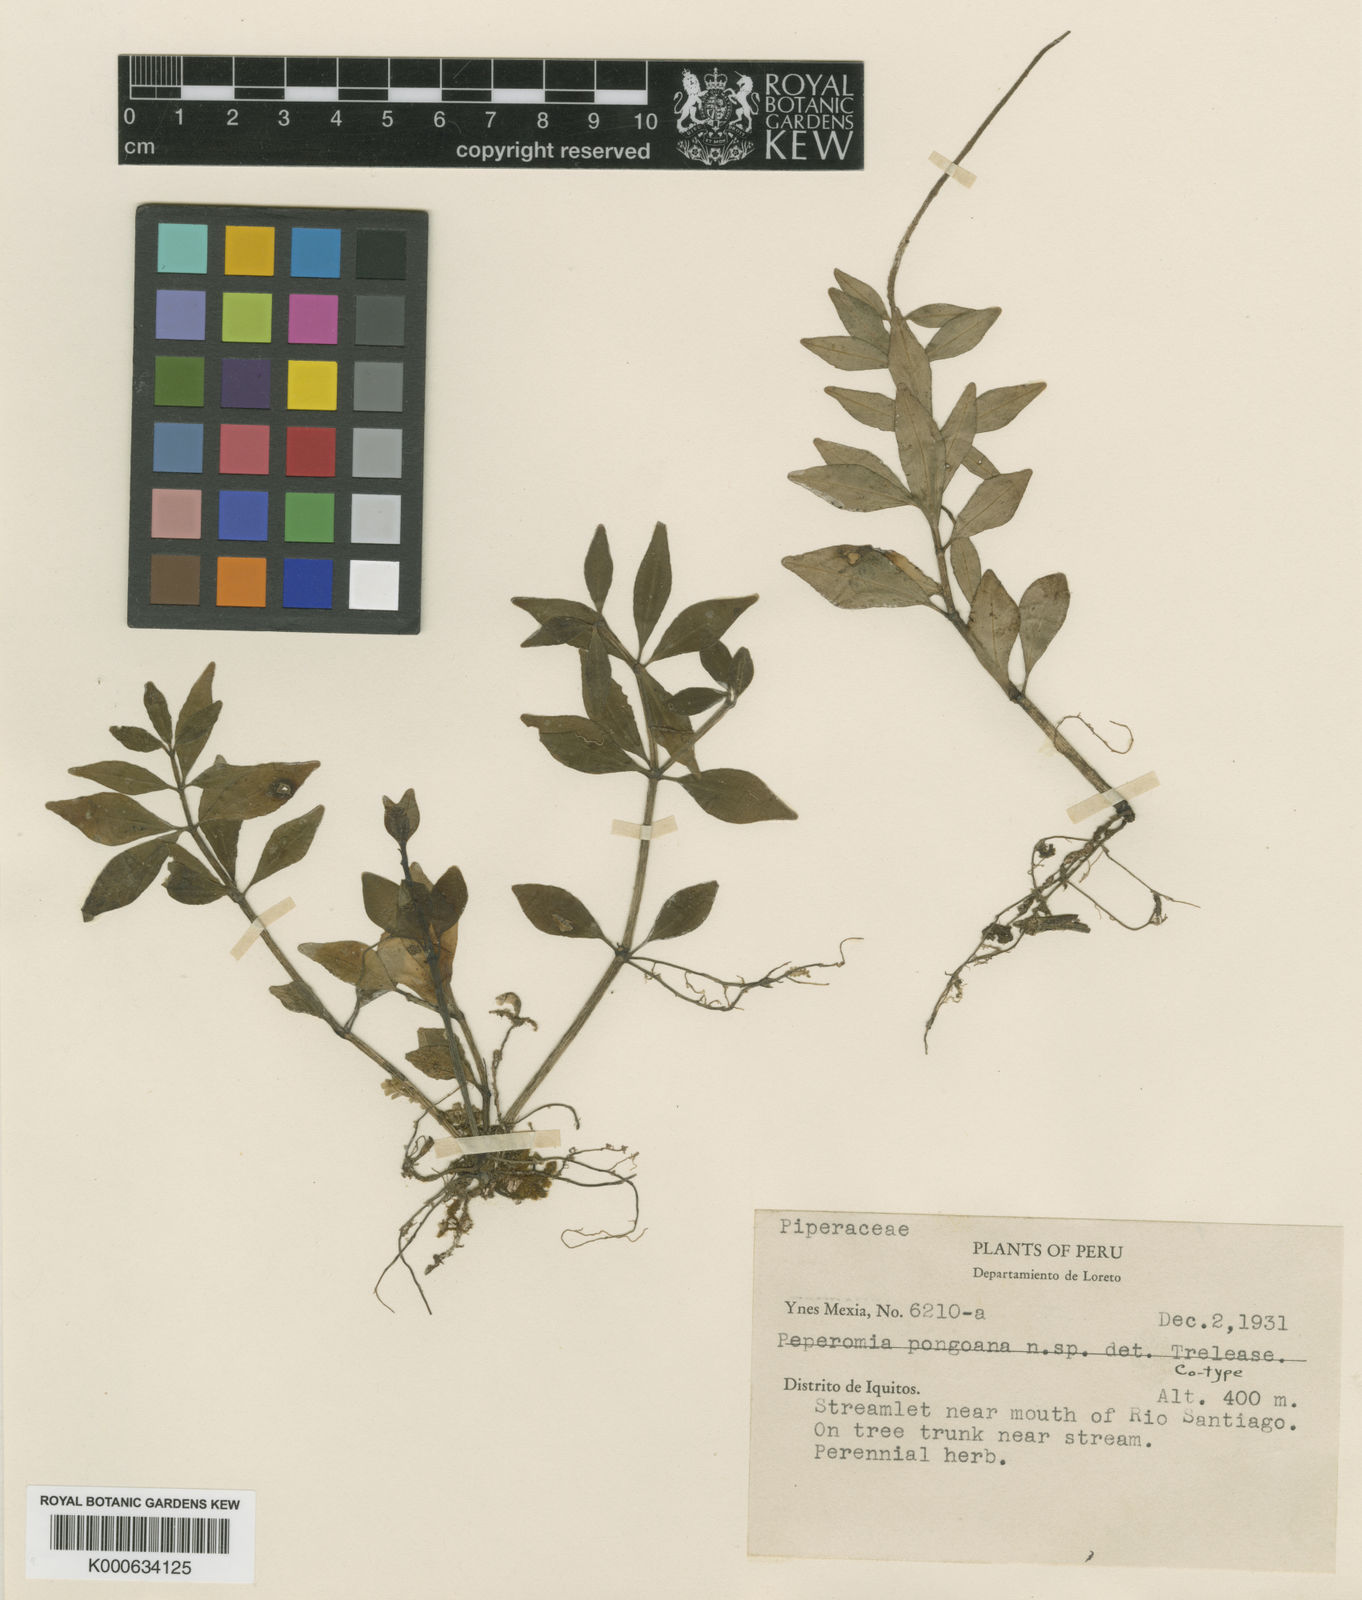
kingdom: Plantae
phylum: Tracheophyta
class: Magnoliopsida
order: Piperales
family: Piperaceae
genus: Peperomia
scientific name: Peperomia pongoana
